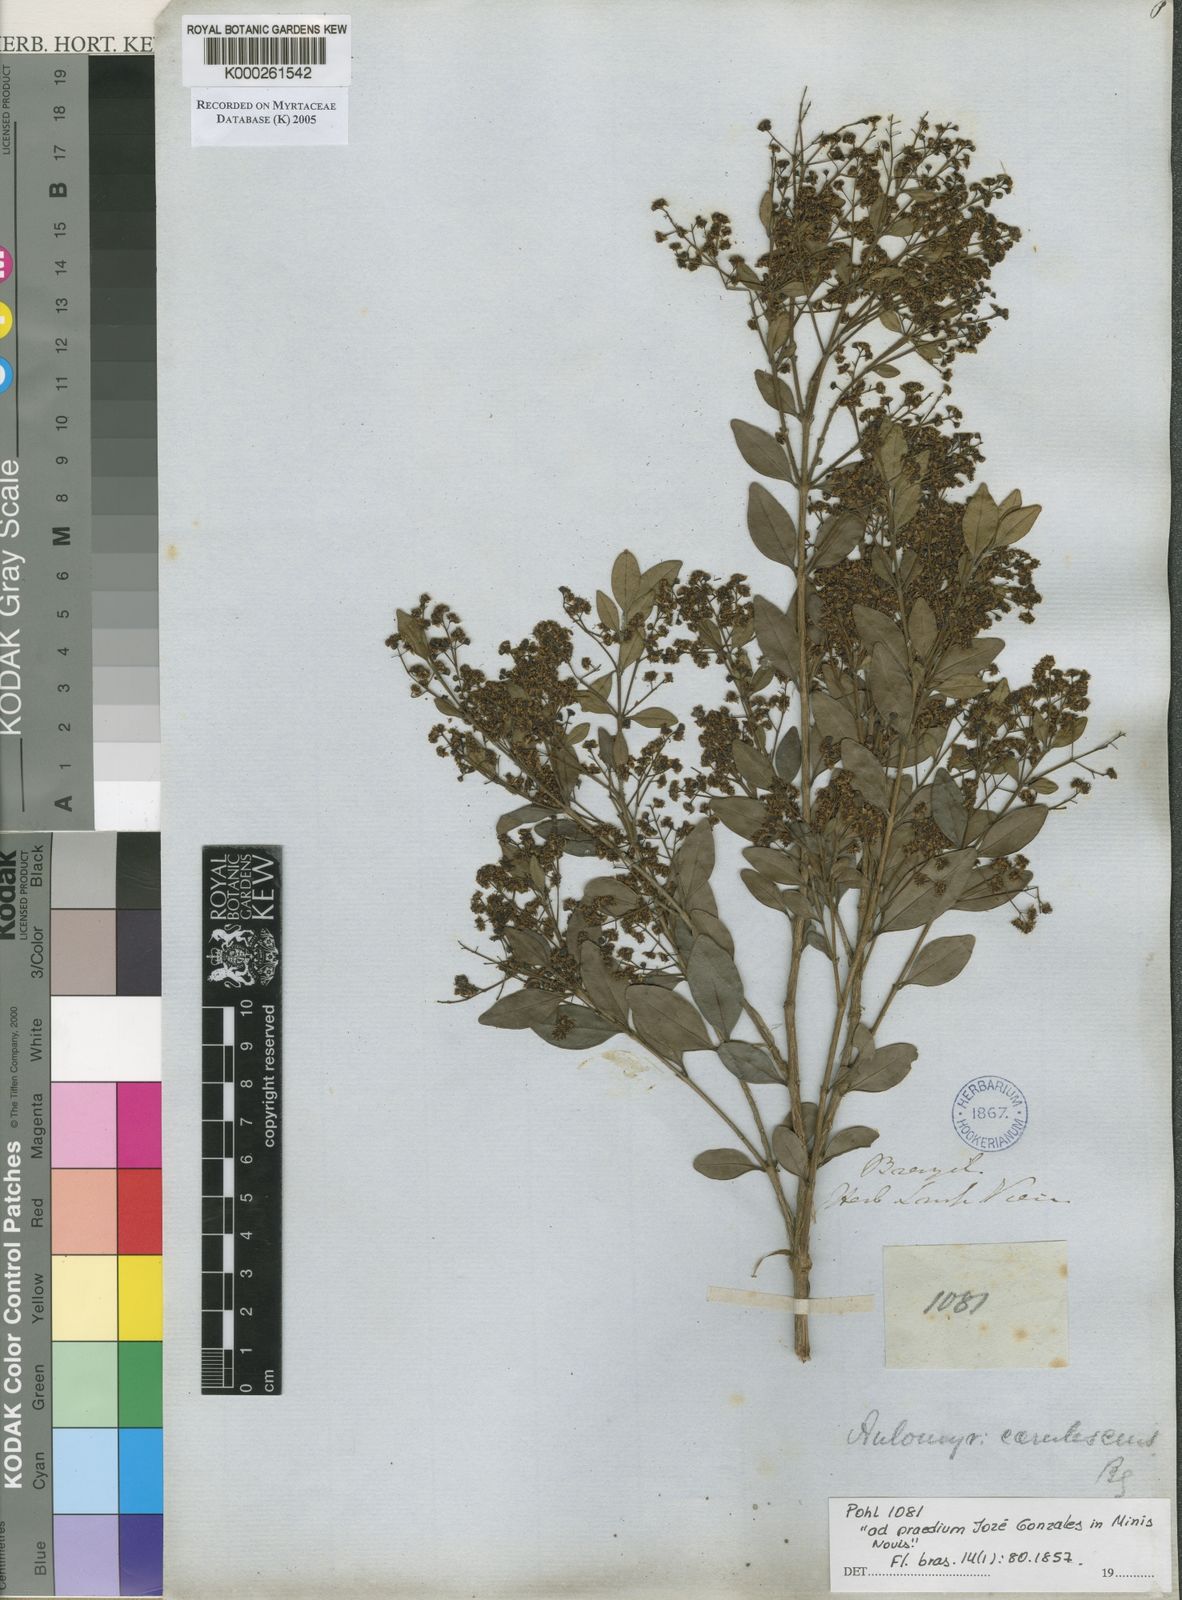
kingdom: Plantae
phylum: Tracheophyta
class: Magnoliopsida
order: Myrtales
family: Myrtaceae
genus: Myrcia
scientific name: Myrcia multiflora
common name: Pedra hume
